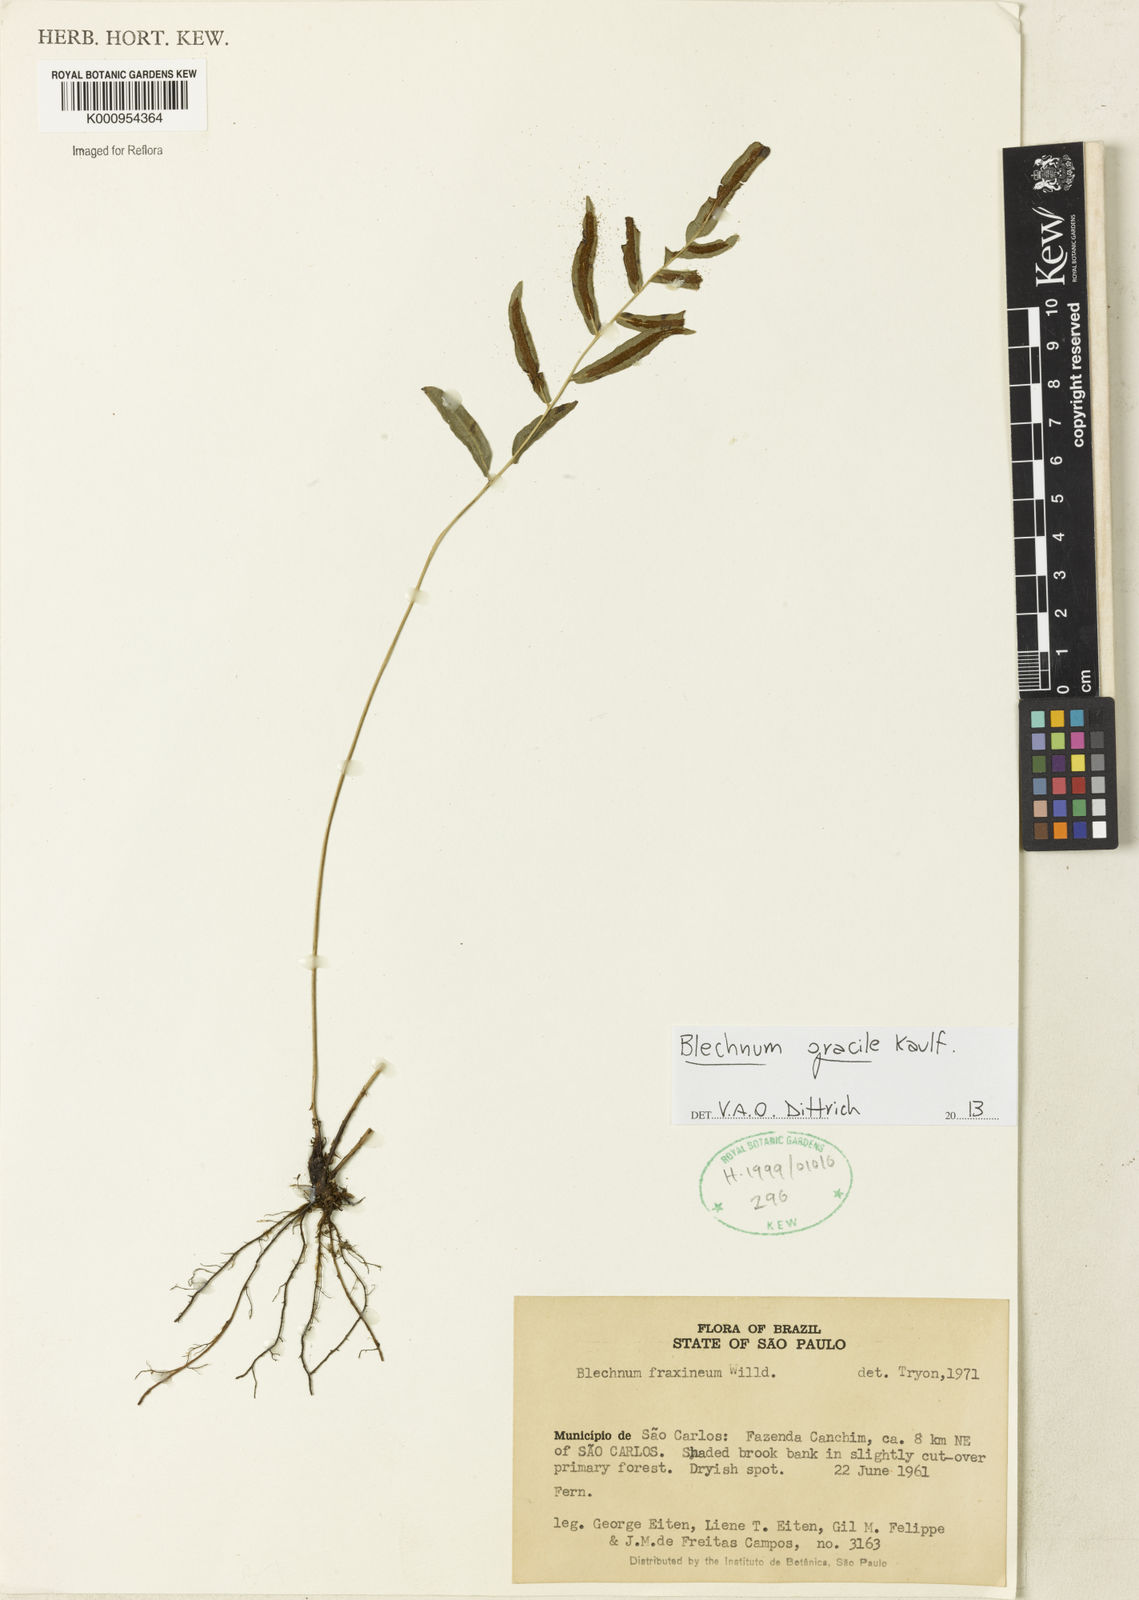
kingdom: Plantae
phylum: Tracheophyta
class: Polypodiopsida
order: Polypodiales
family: Blechnaceae
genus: Blechnum
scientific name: Blechnum gracile
